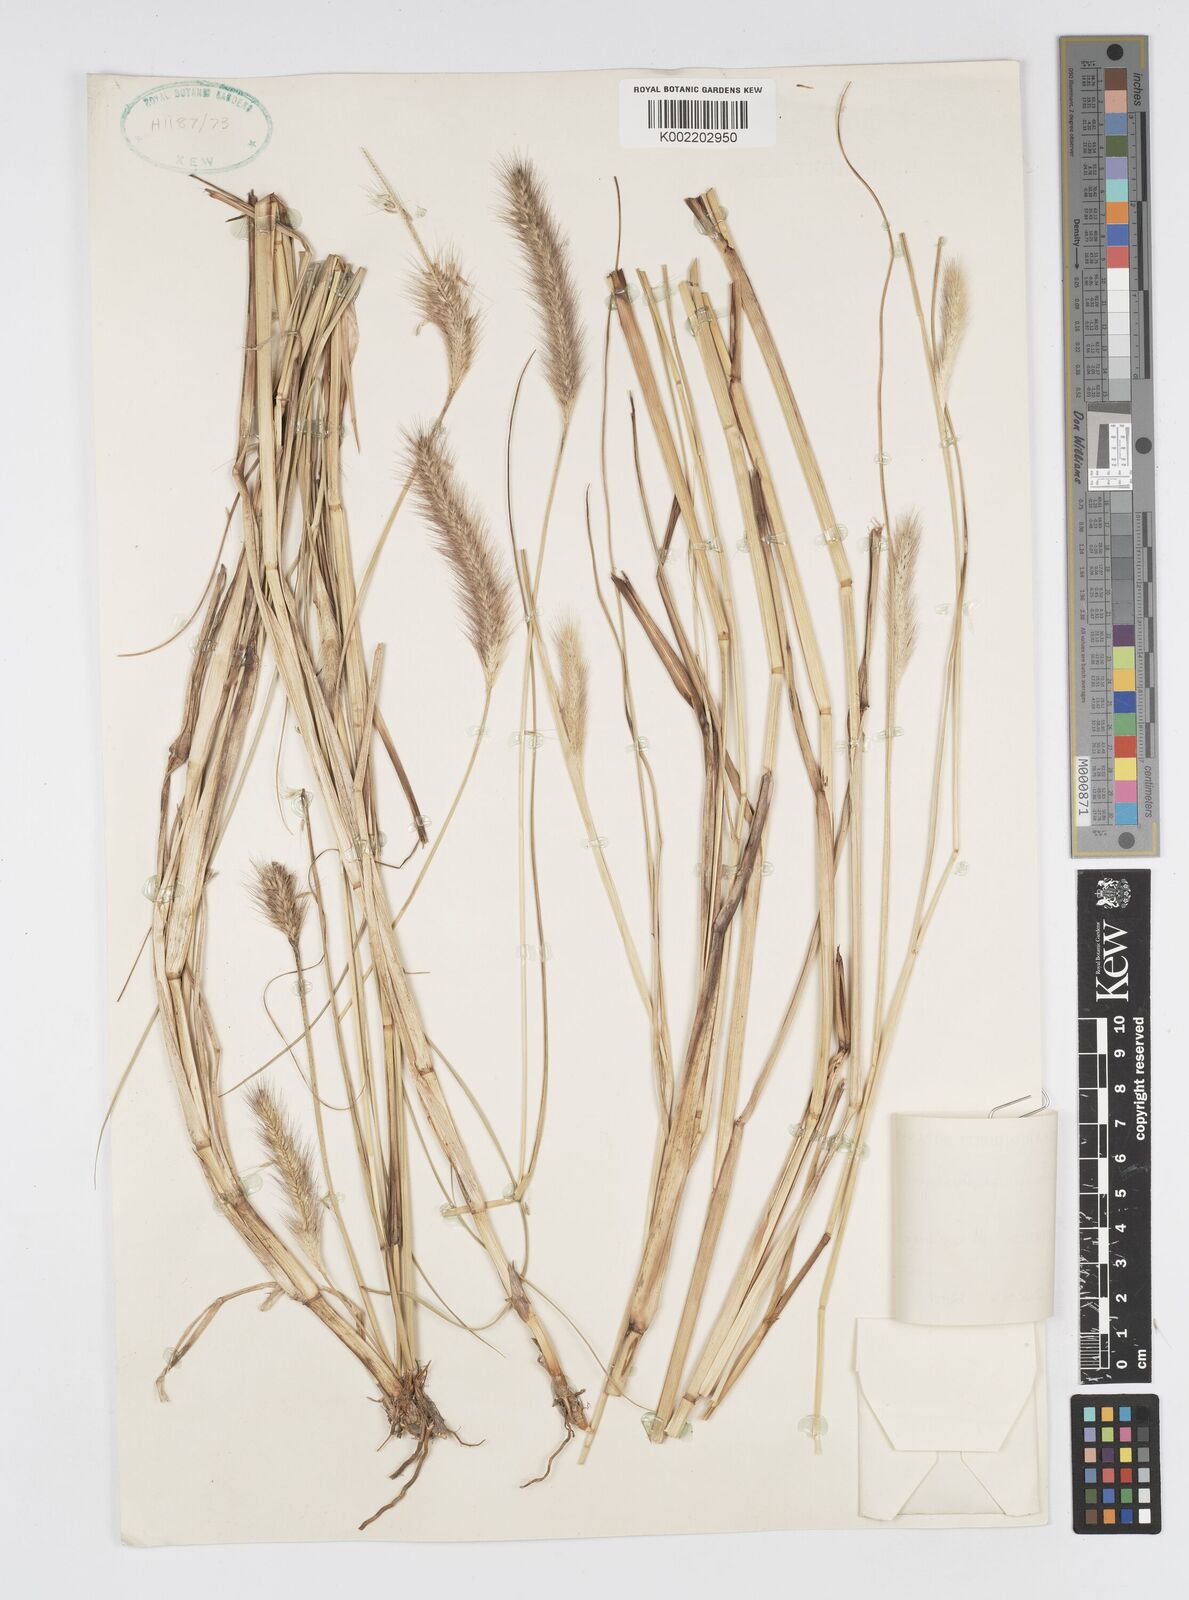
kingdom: Plantae
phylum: Tracheophyta
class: Liliopsida
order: Poales
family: Poaceae
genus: Cenchrus
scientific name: Cenchrus geniculatus
